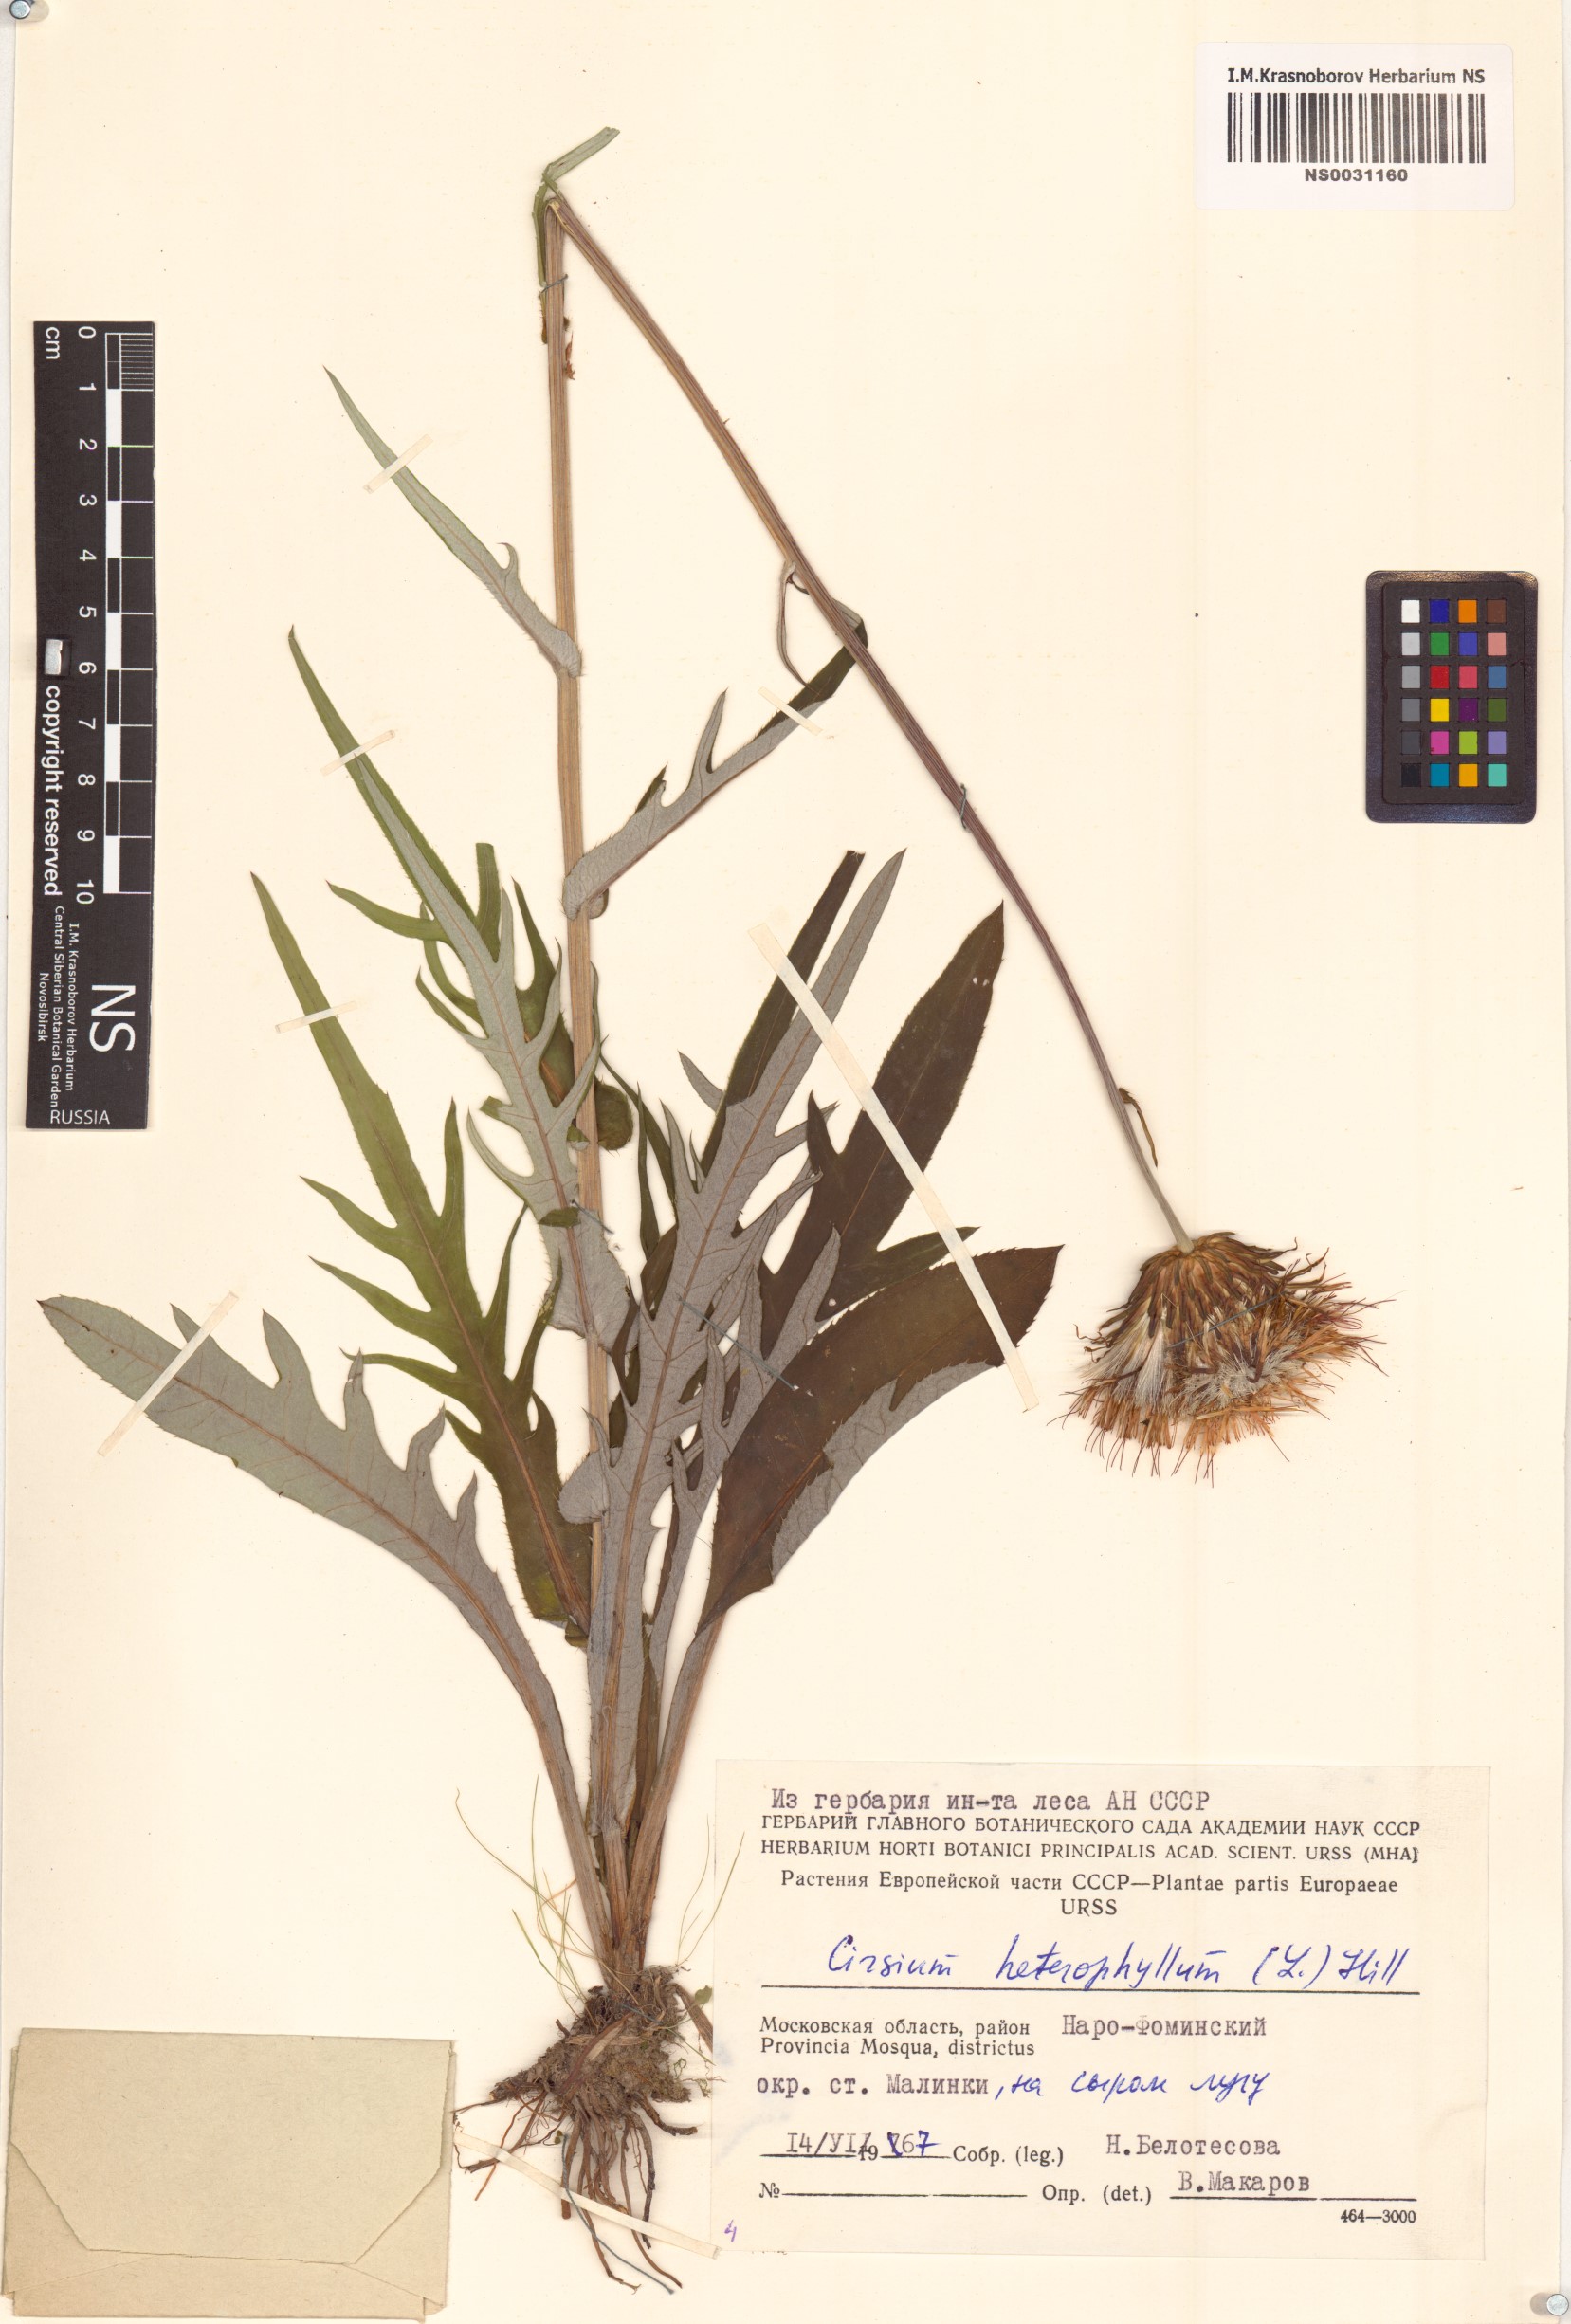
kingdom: Plantae
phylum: Tracheophyta
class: Magnoliopsida
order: Asterales
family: Asteraceae
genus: Cirsium
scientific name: Cirsium heterophyllum
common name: Melancholy thistle
